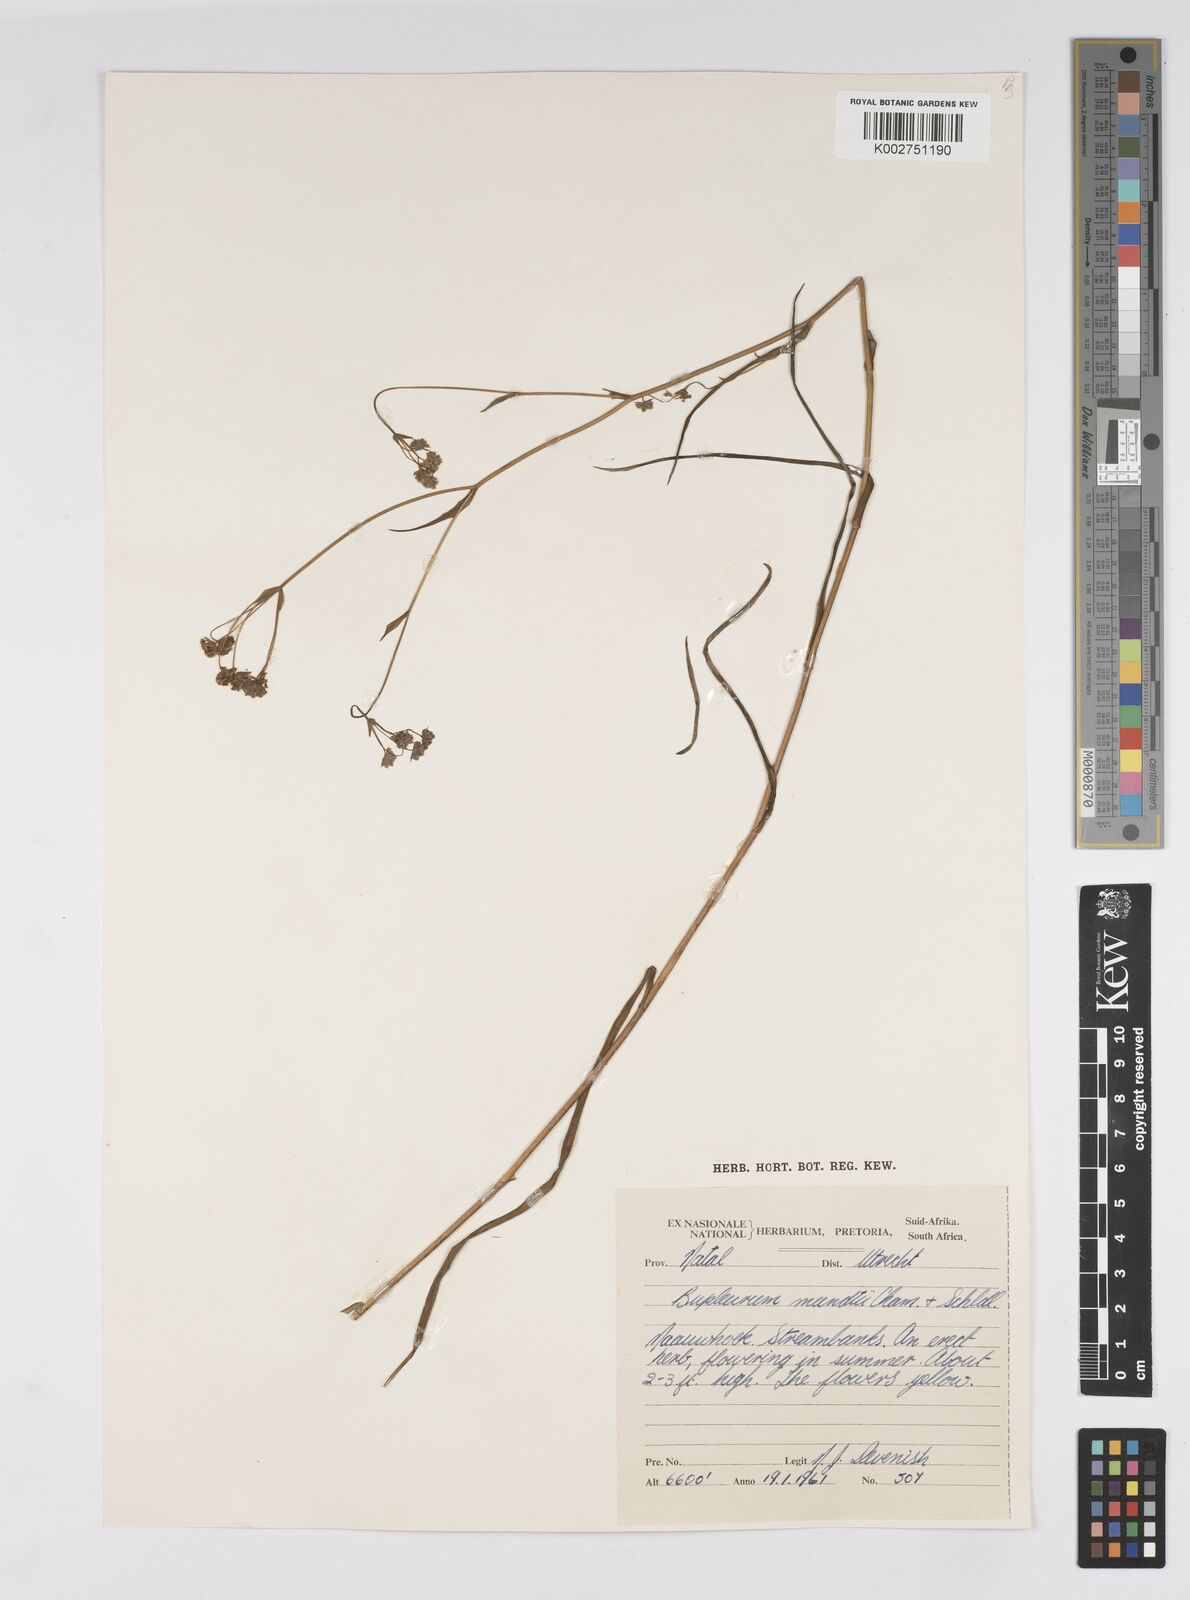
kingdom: Plantae
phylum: Tracheophyta
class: Magnoliopsida
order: Apiales
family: Apiaceae
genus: Bupleurum
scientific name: Bupleurum mundii
